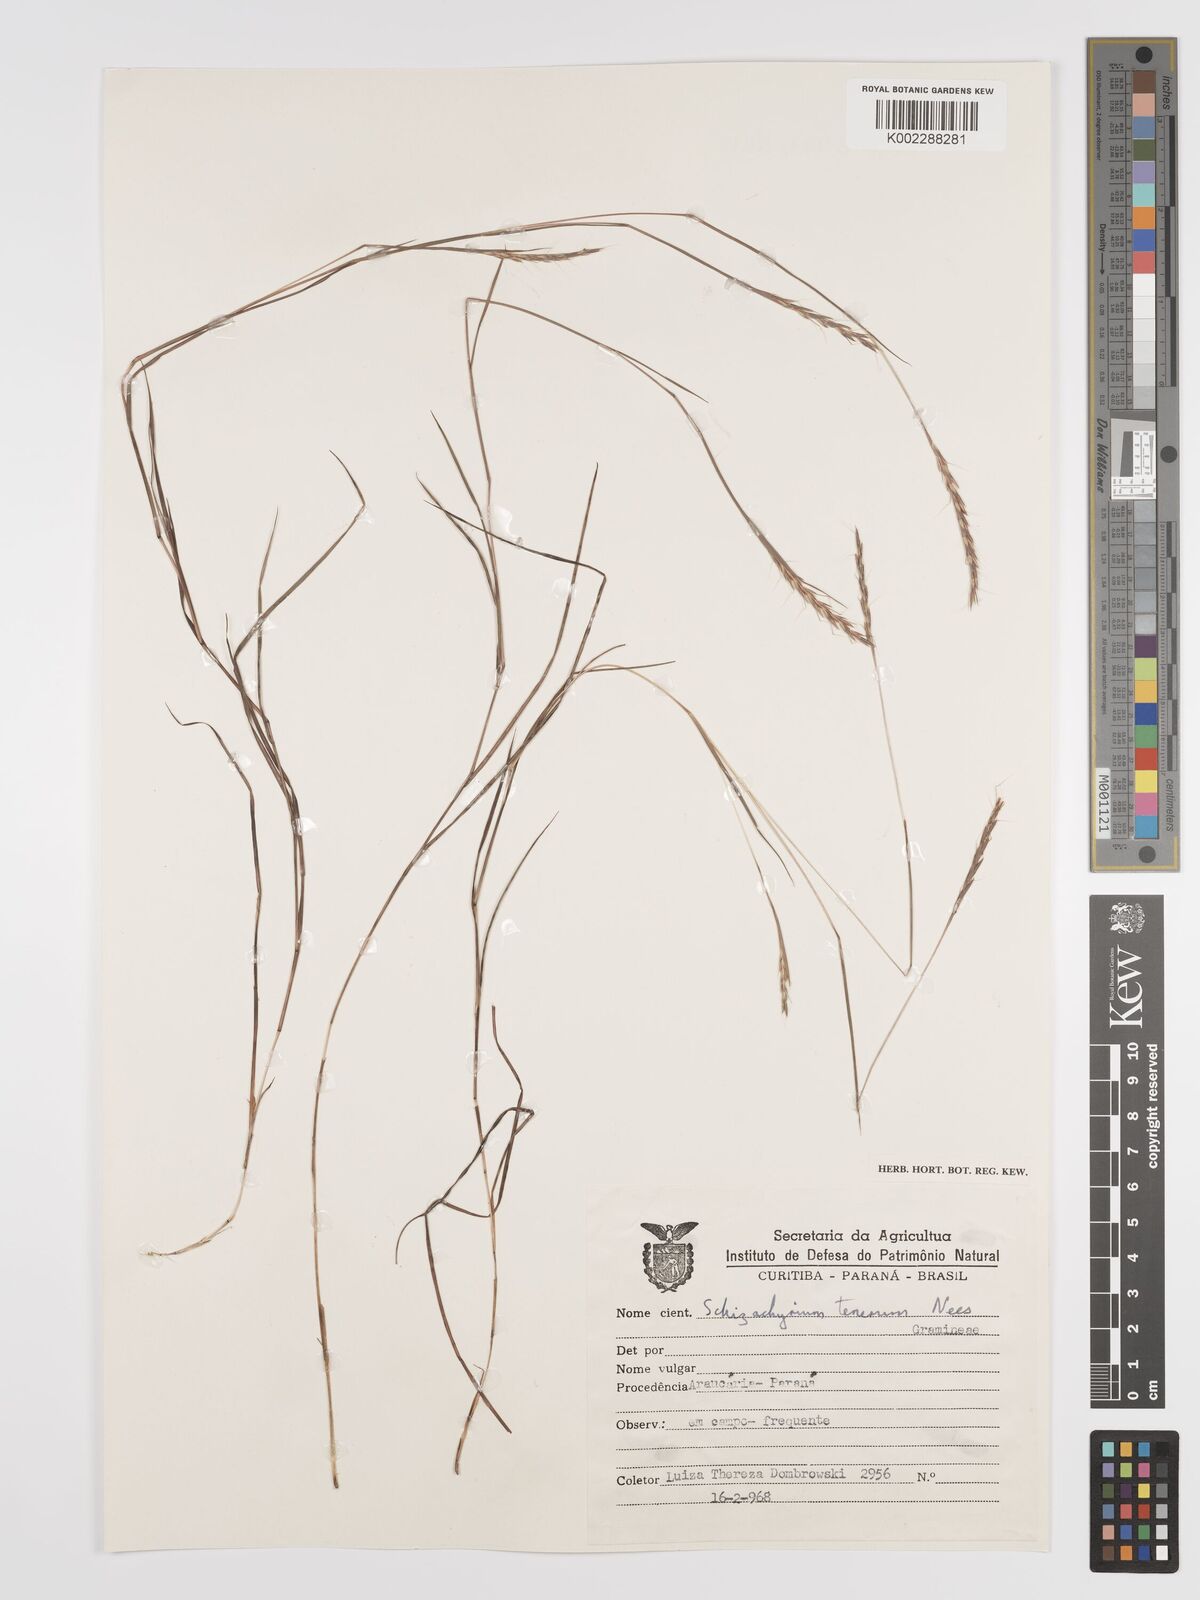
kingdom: Plantae
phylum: Tracheophyta
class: Liliopsida
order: Poales
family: Poaceae
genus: Andropogon
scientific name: Andropogon tener
